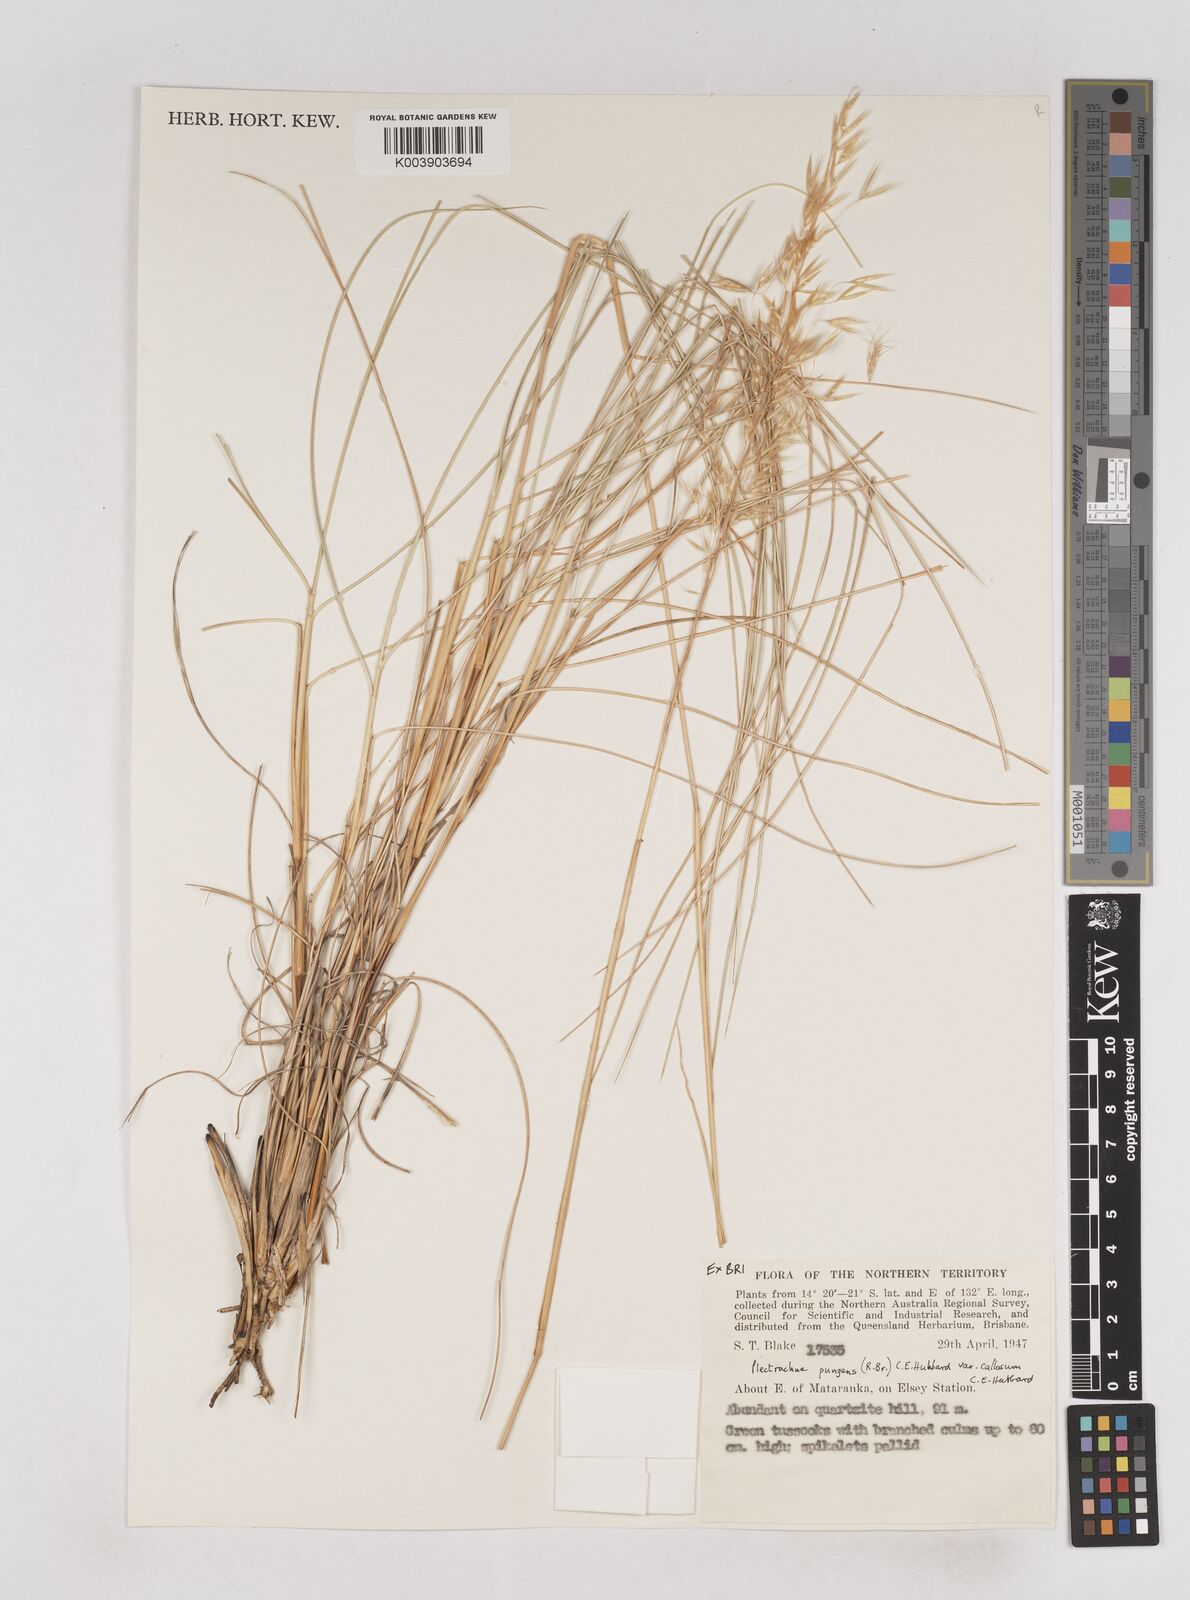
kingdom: Plantae
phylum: Tracheophyta
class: Liliopsida
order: Poales
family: Poaceae
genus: Triodia
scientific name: Triodia bitextura
